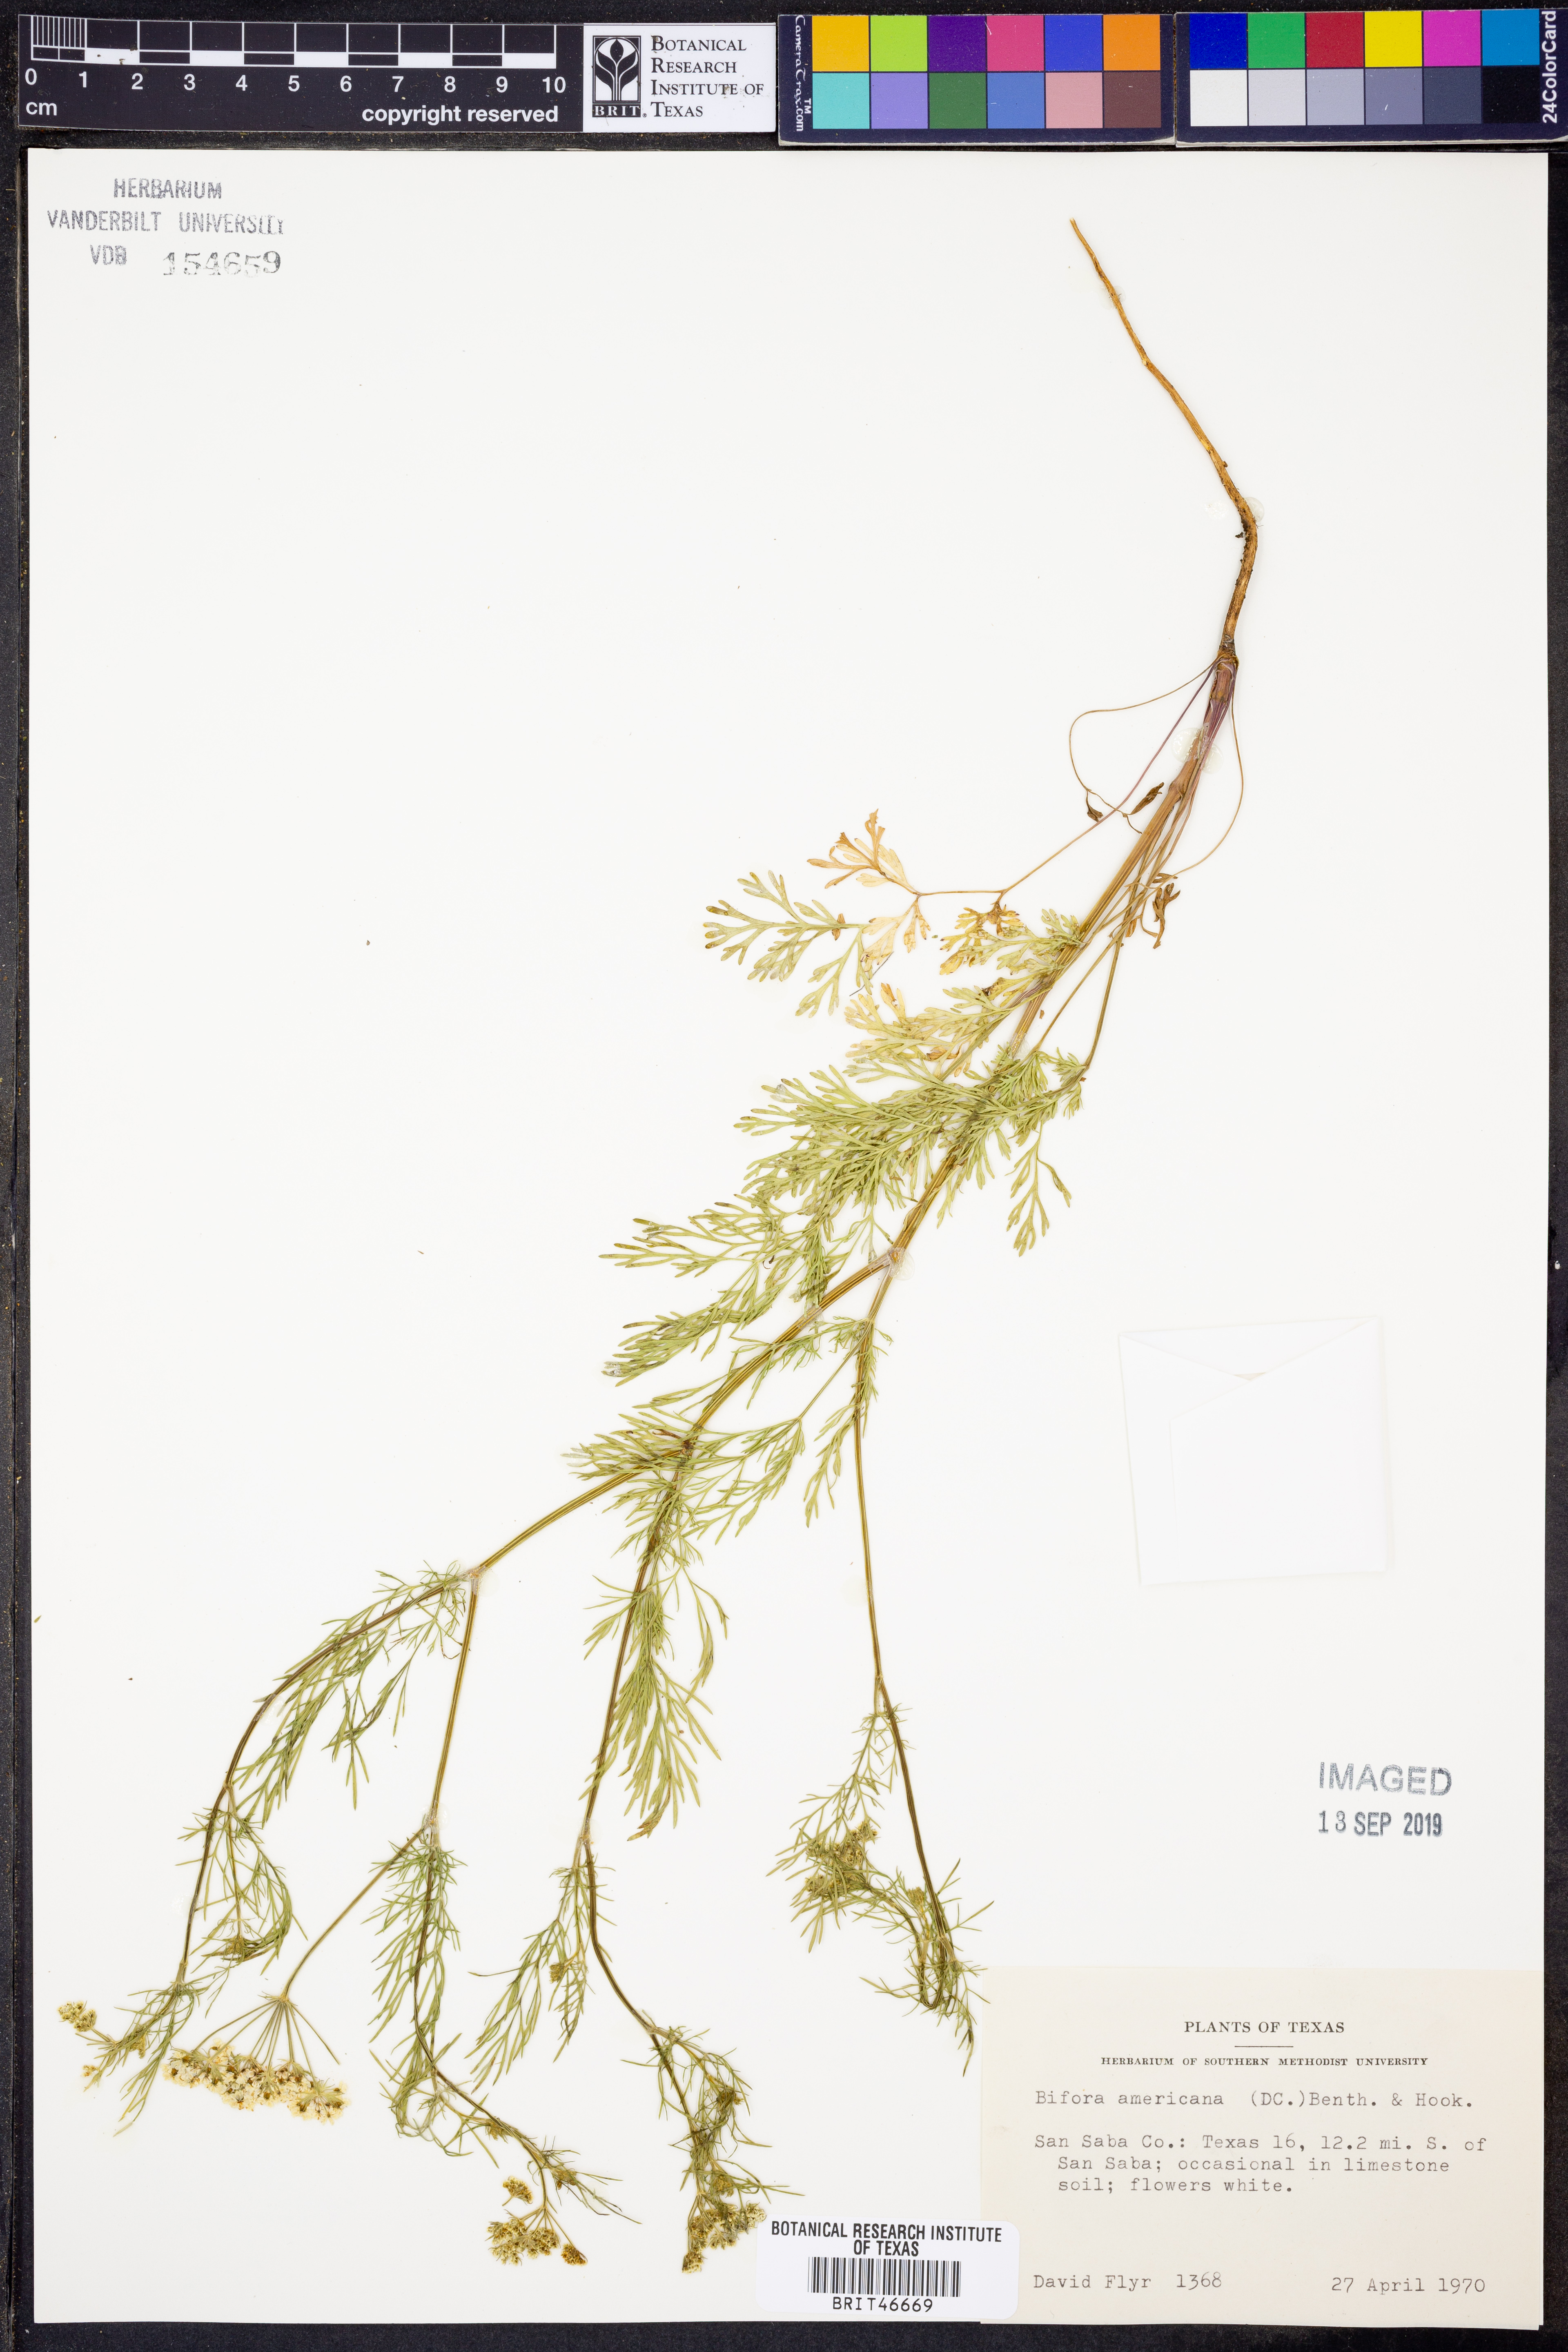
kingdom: Plantae
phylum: Tracheophyta
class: Magnoliopsida
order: Apiales
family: Apiaceae
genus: Atrema
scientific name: Atrema americanum
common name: Prairie-bishop
